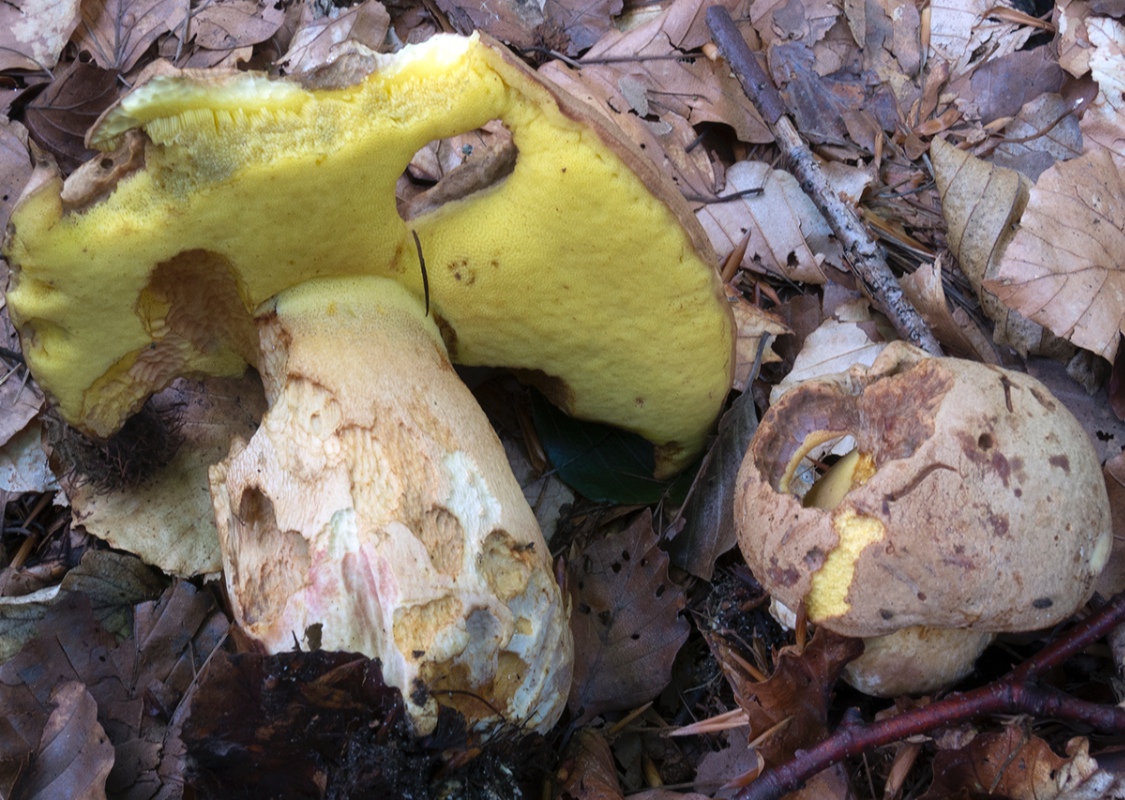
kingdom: Fungi
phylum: Basidiomycota
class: Agaricomycetes
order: Boletales
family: Boletaceae
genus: Butyriboletus
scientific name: Butyriboletus appendiculatus
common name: tenstokket rørhat
